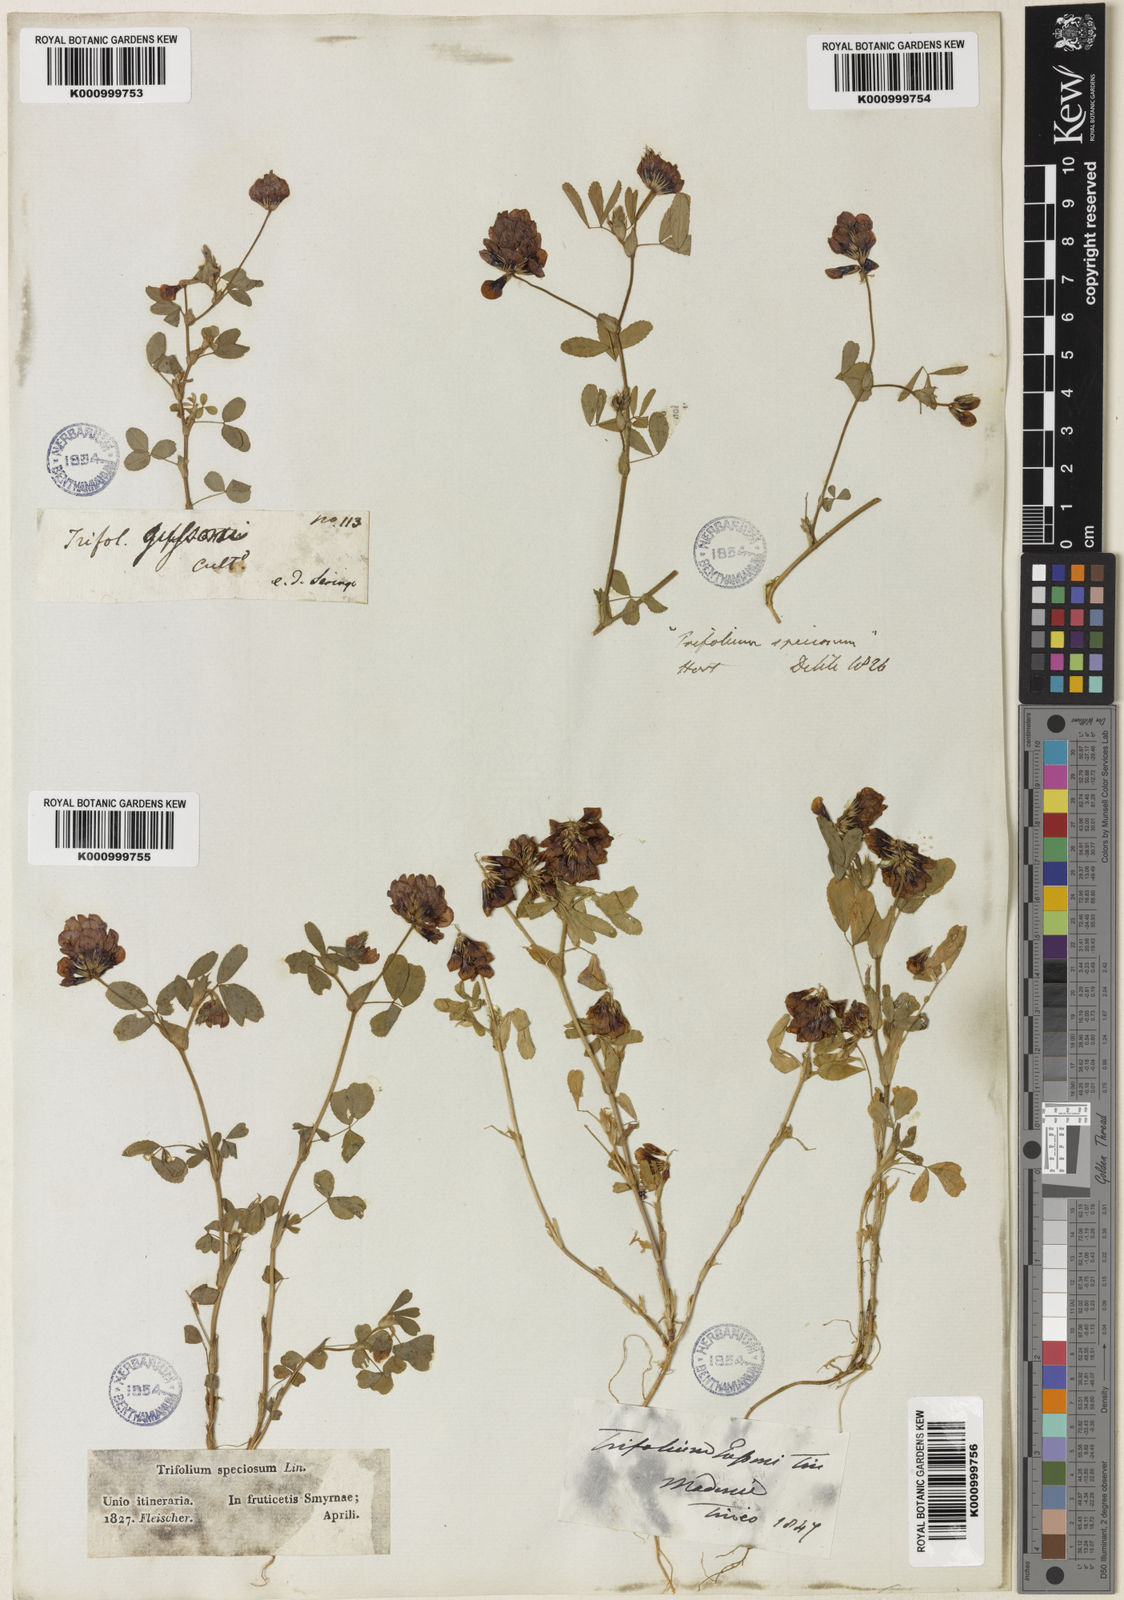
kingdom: Plantae
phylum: Tracheophyta
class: Magnoliopsida
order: Fabales
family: Fabaceae
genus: Trifolium
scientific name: Trifolium
